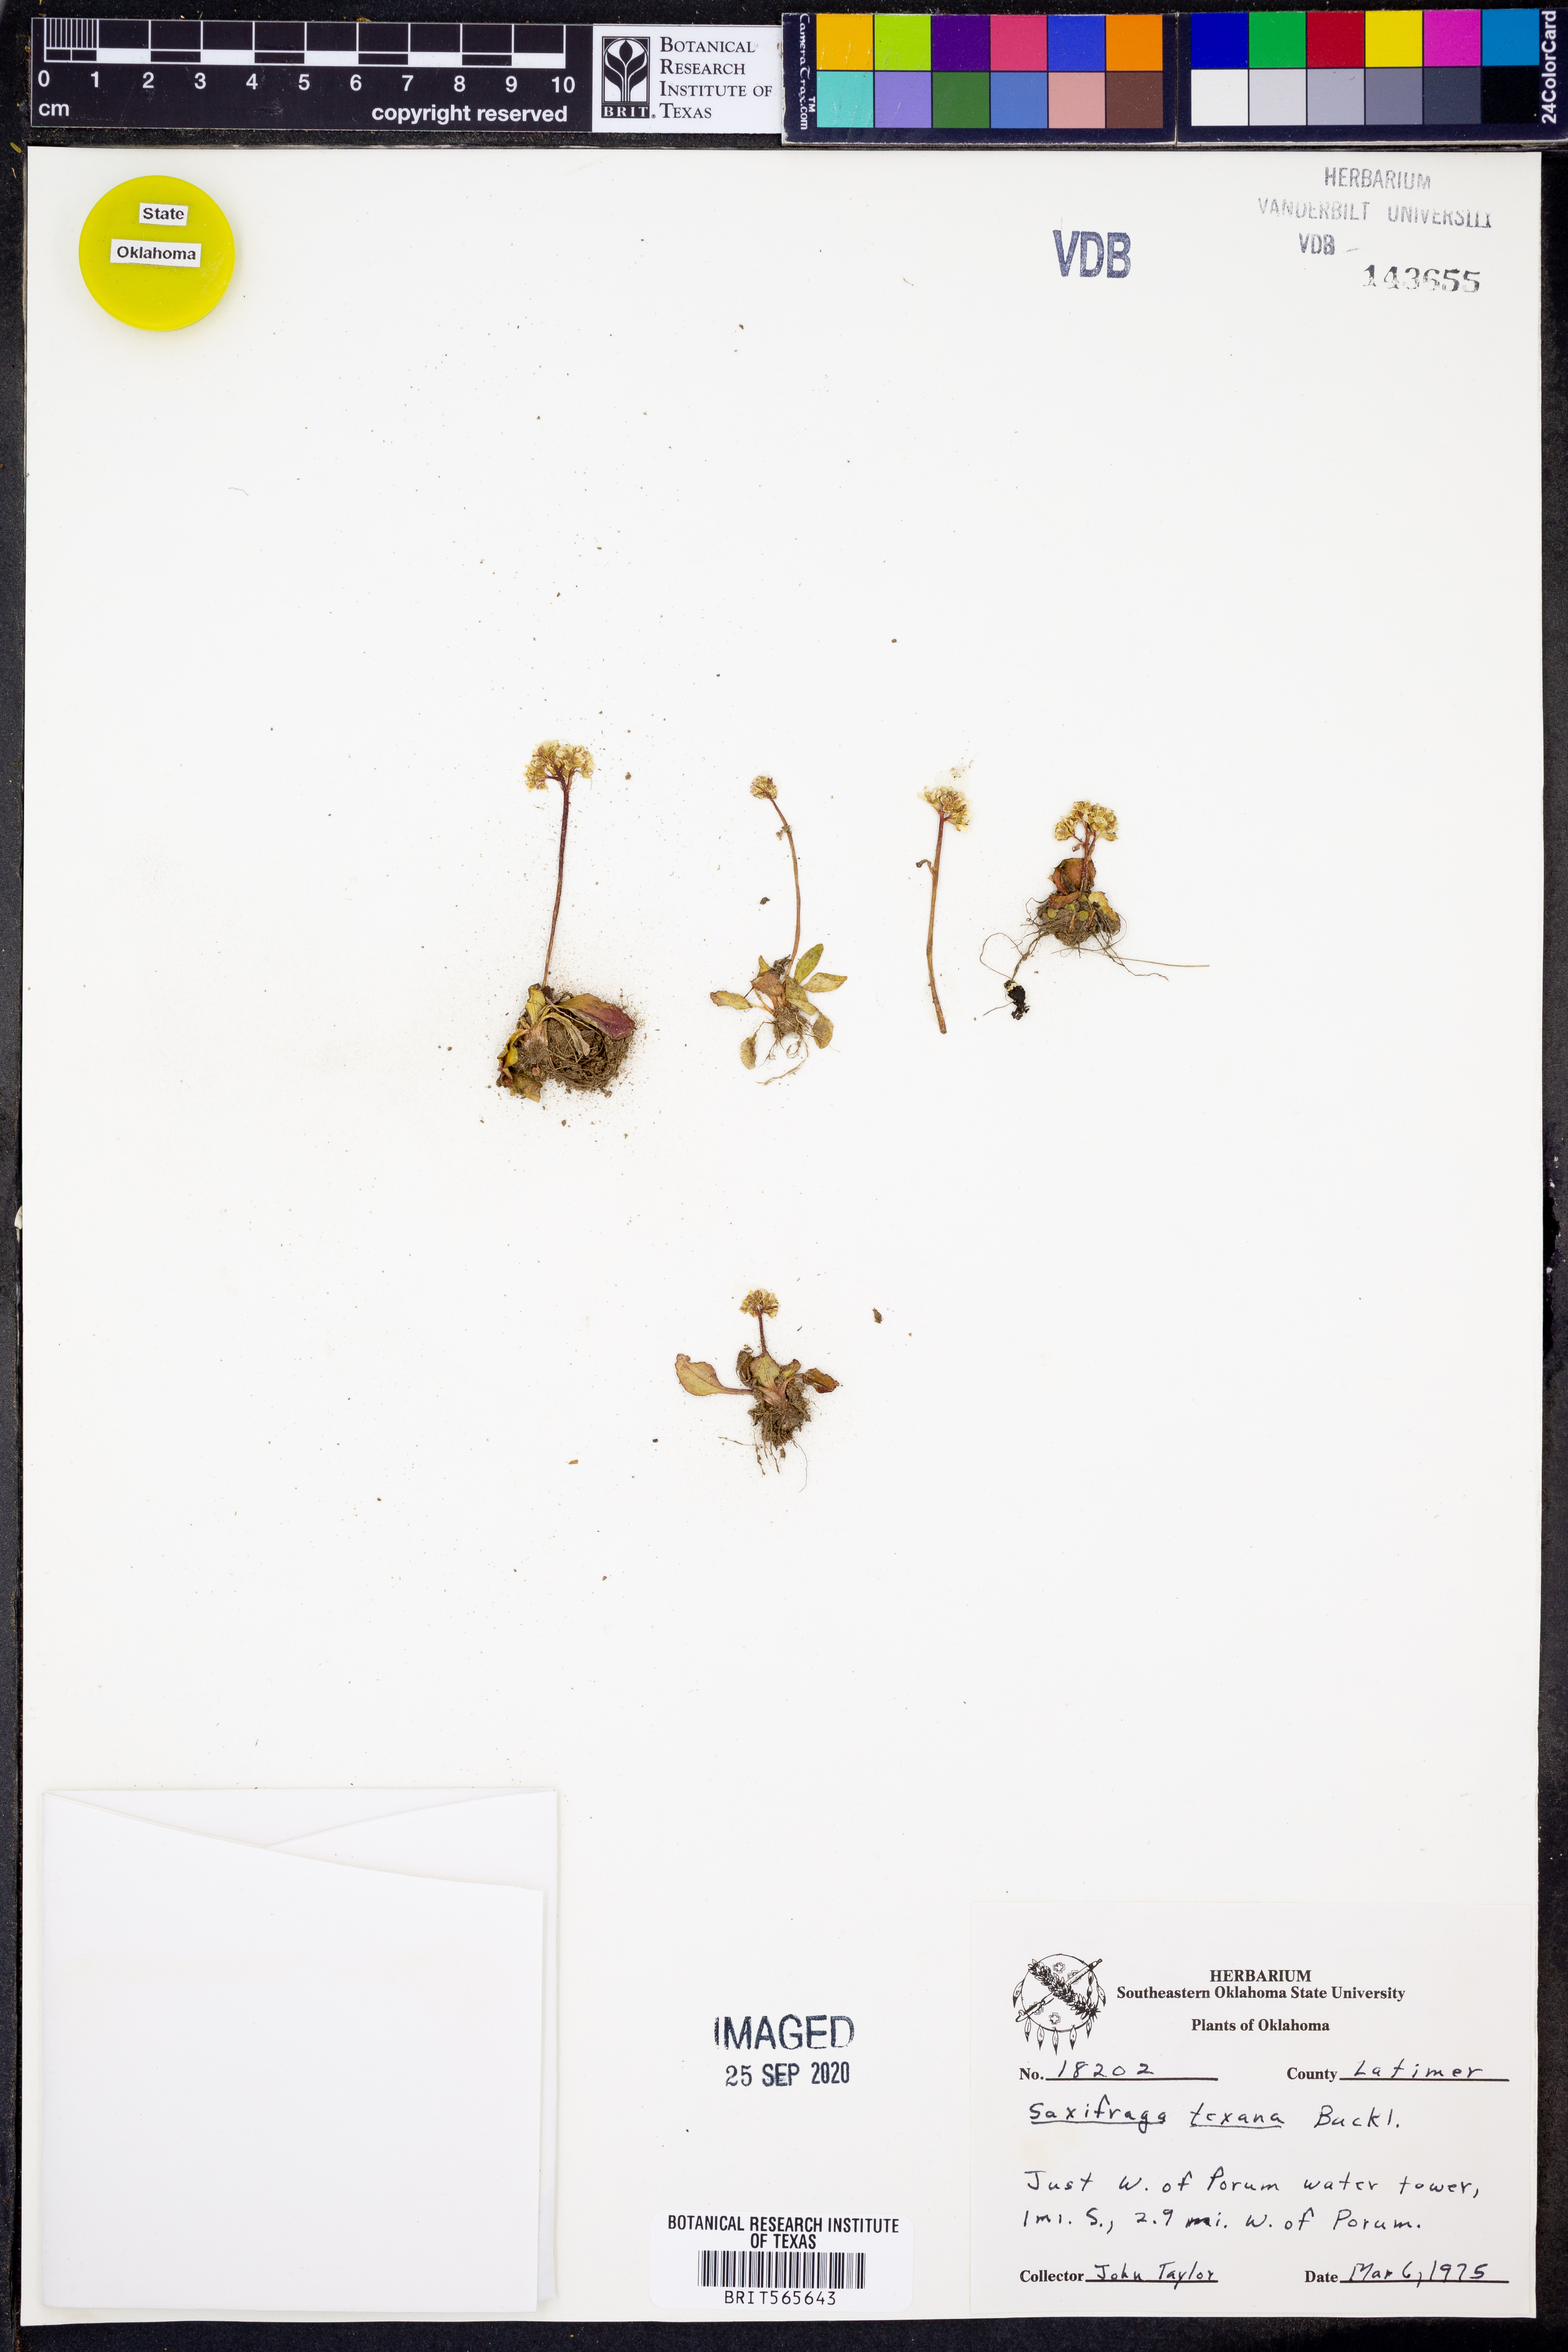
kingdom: Plantae
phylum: Tracheophyta
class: Magnoliopsida
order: Saxifragales
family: Saxifragaceae
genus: Micranthes
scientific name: Micranthes texana
